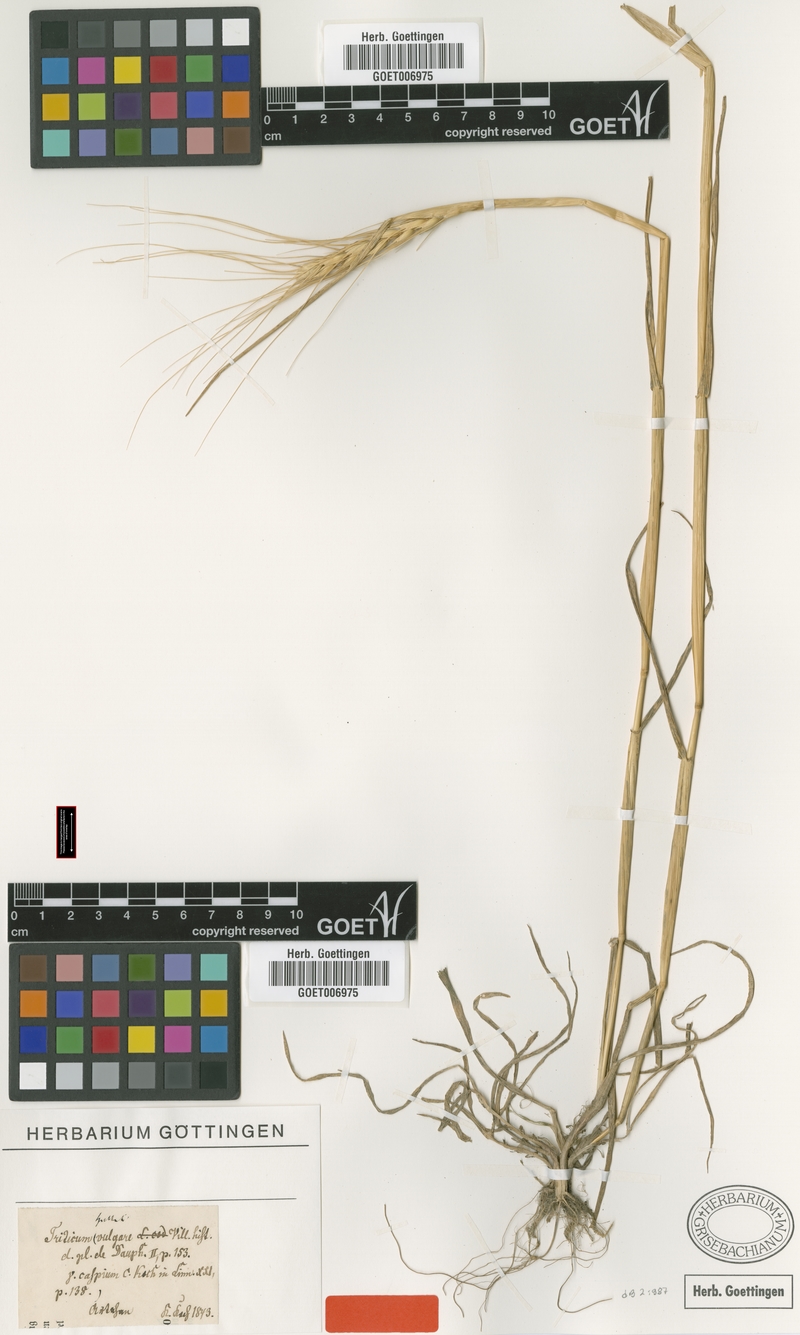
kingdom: Plantae
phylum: Tracheophyta
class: Liliopsida
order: Poales
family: Poaceae
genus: Triticum
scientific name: Triticum aestivum
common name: Common wheat
